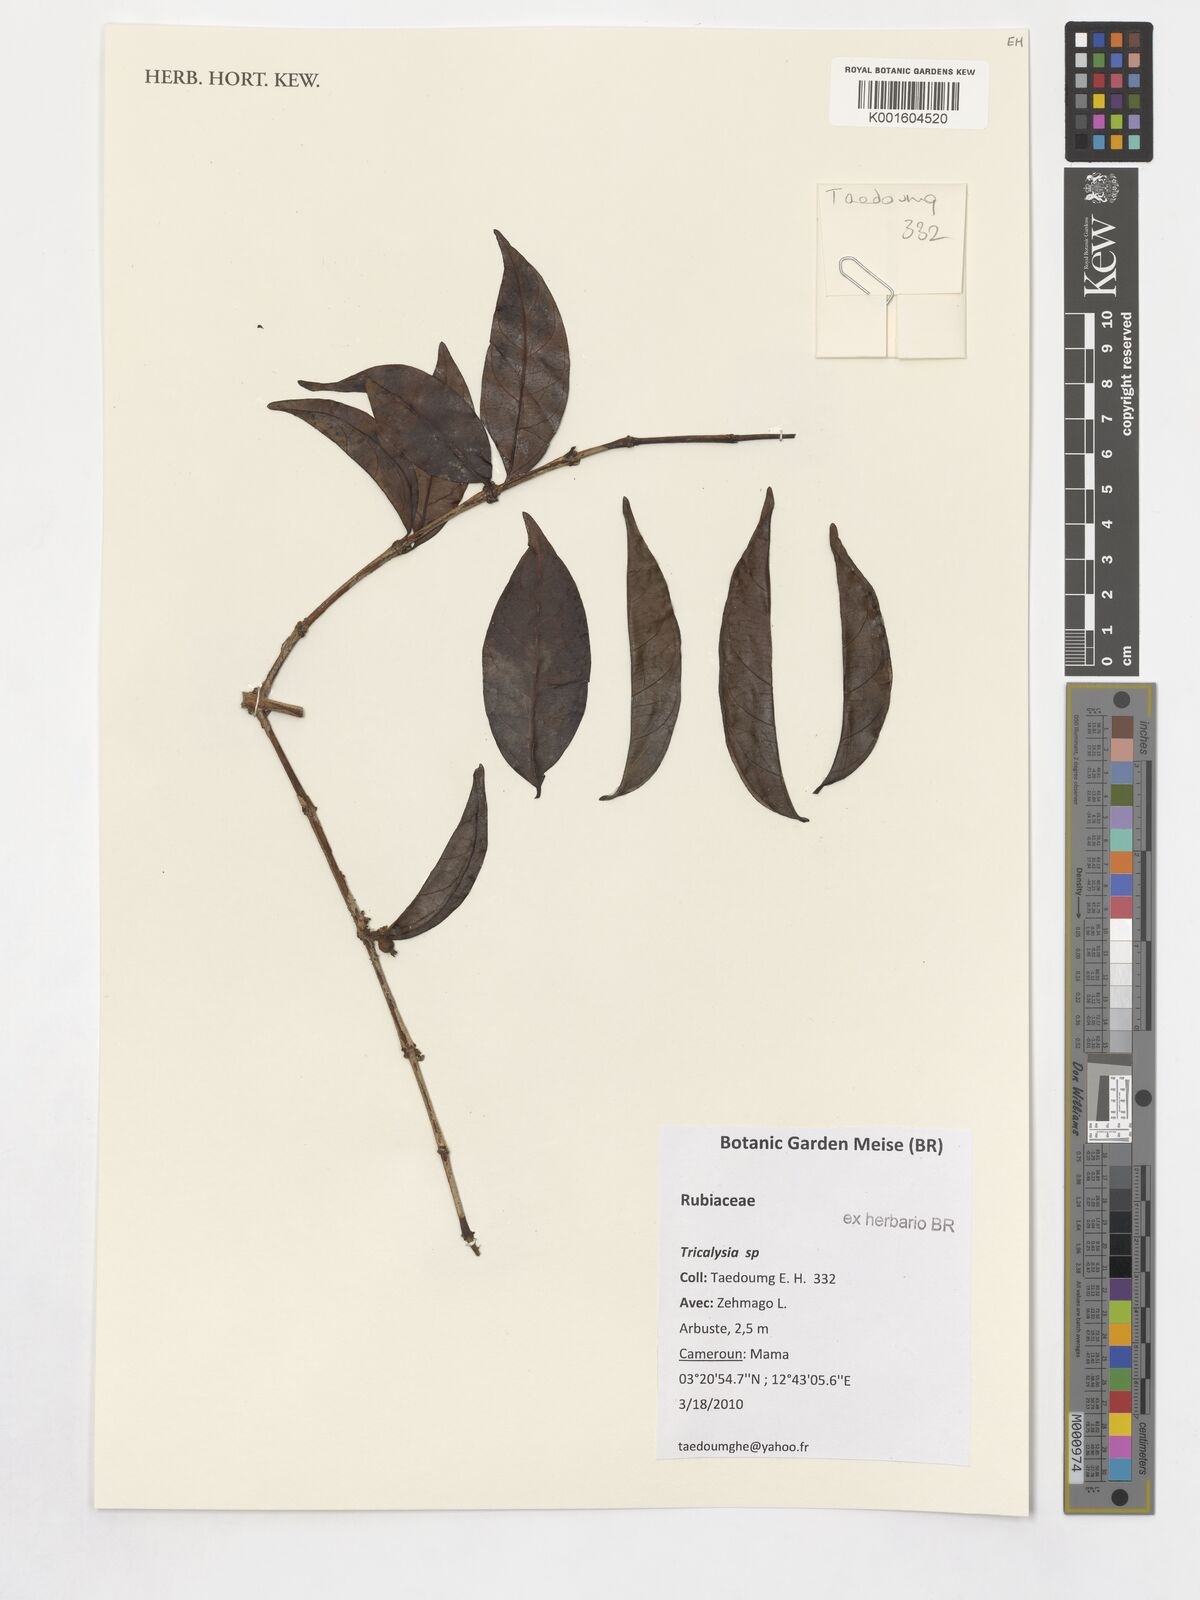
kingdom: Plantae
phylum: Tracheophyta
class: Magnoliopsida
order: Gentianales
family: Rubiaceae
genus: Tricalysia
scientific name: Tricalysia
